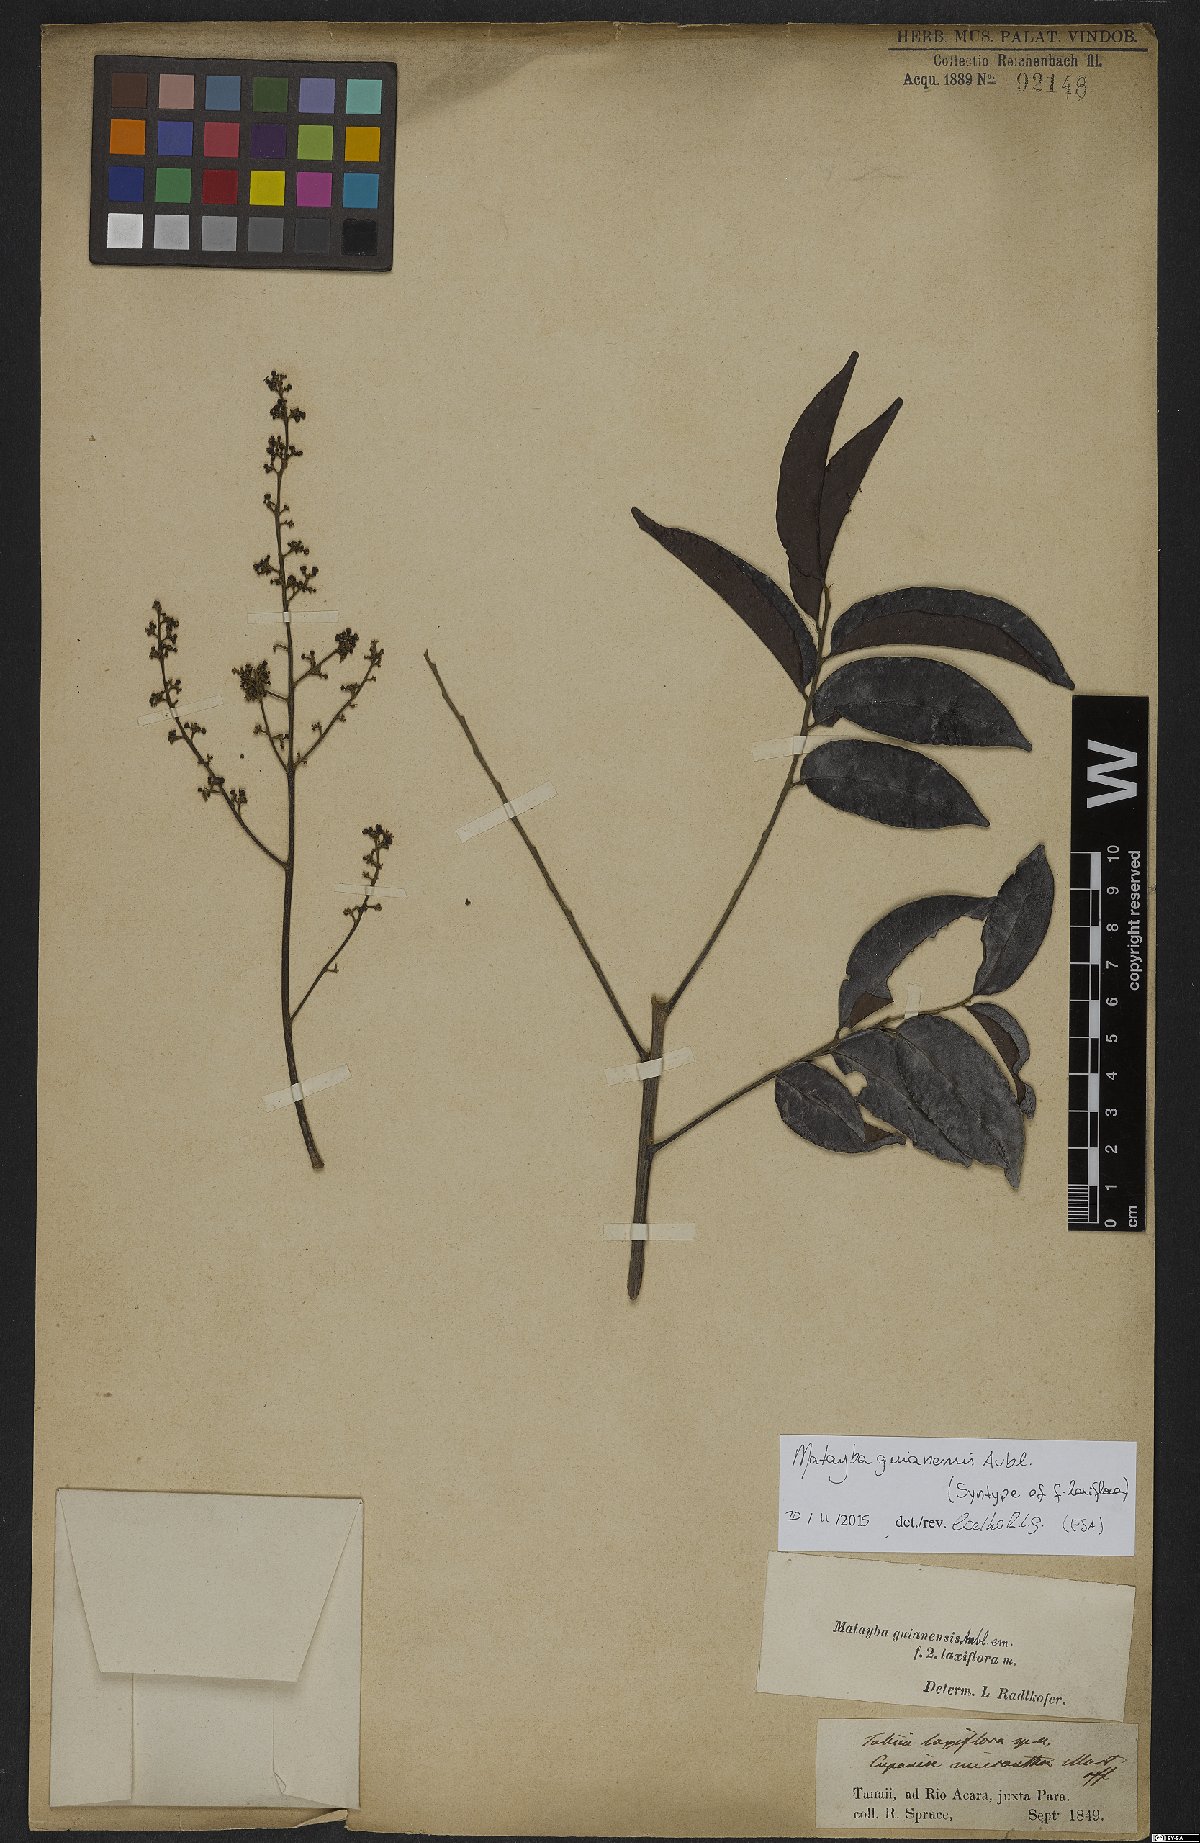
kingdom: Plantae
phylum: Tracheophyta
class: Magnoliopsida
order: Sapindales
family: Sapindaceae
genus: Matayba
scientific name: Matayba guianensis
